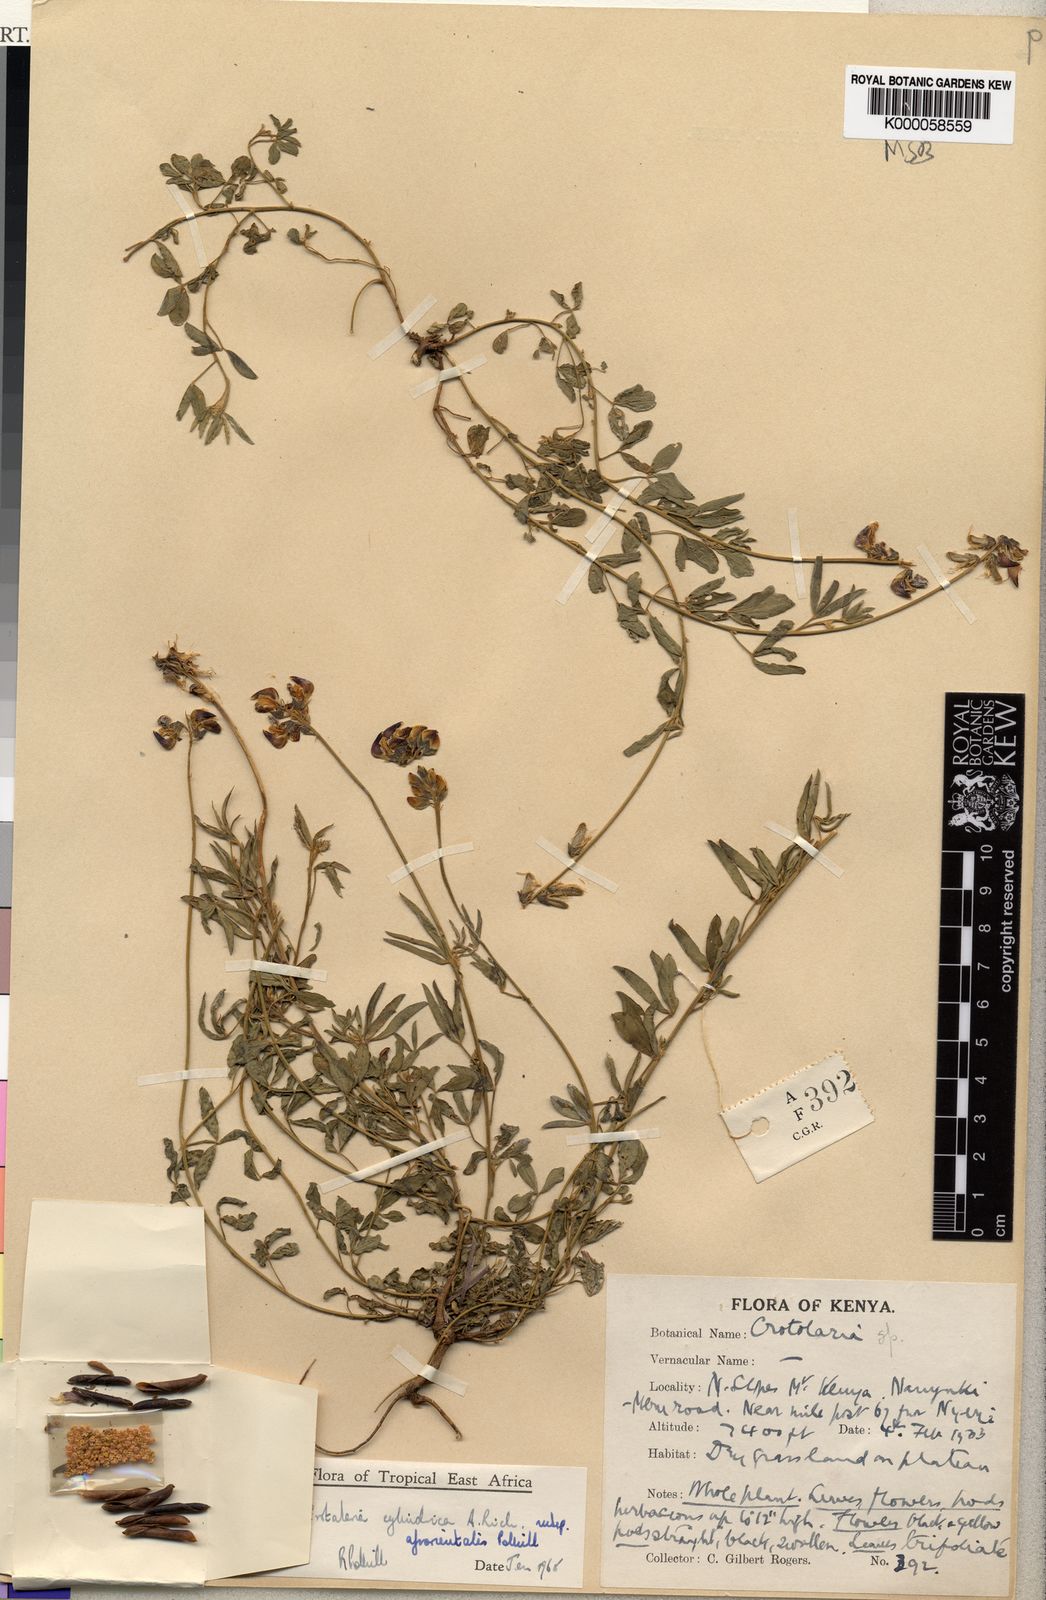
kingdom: Plantae
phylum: Tracheophyta
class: Magnoliopsida
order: Fabales
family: Fabaceae
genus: Crotalaria
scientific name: Crotalaria cylindrica
